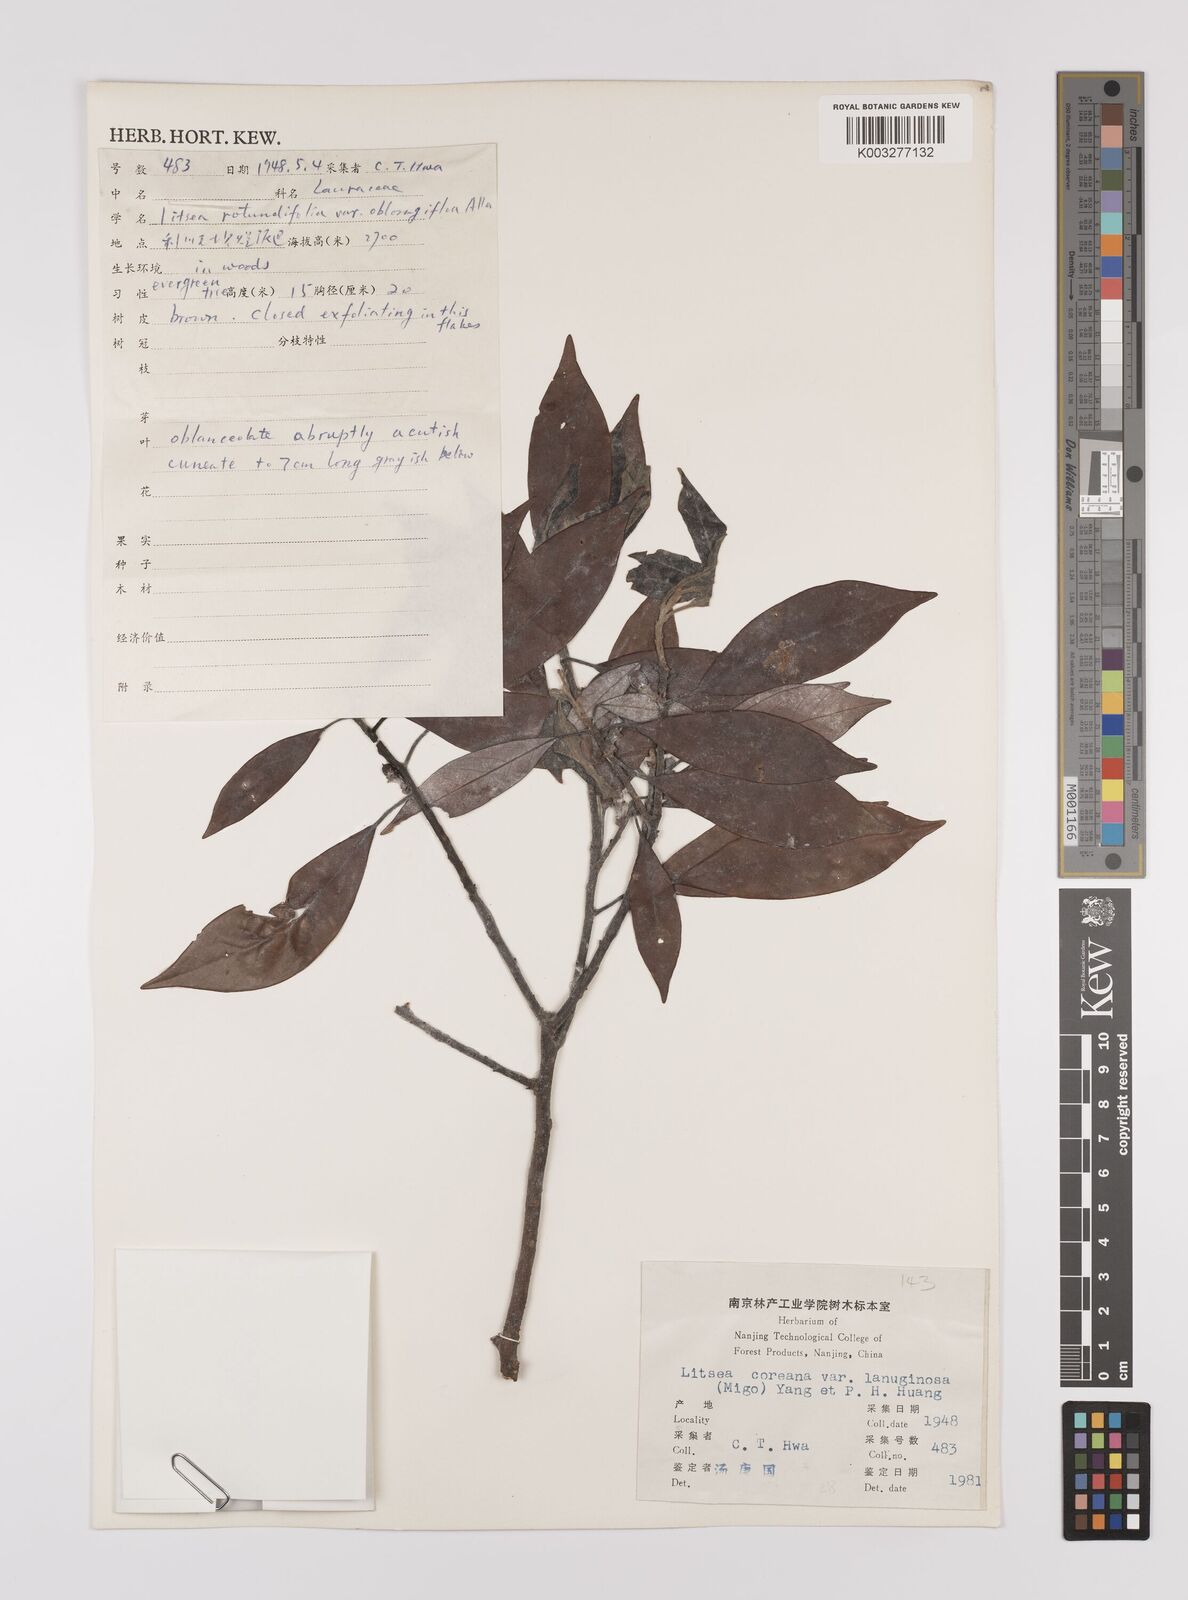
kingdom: Plantae
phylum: Tracheophyta
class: Magnoliopsida
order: Laurales
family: Lauraceae
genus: Litsea
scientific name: Litsea coreana
